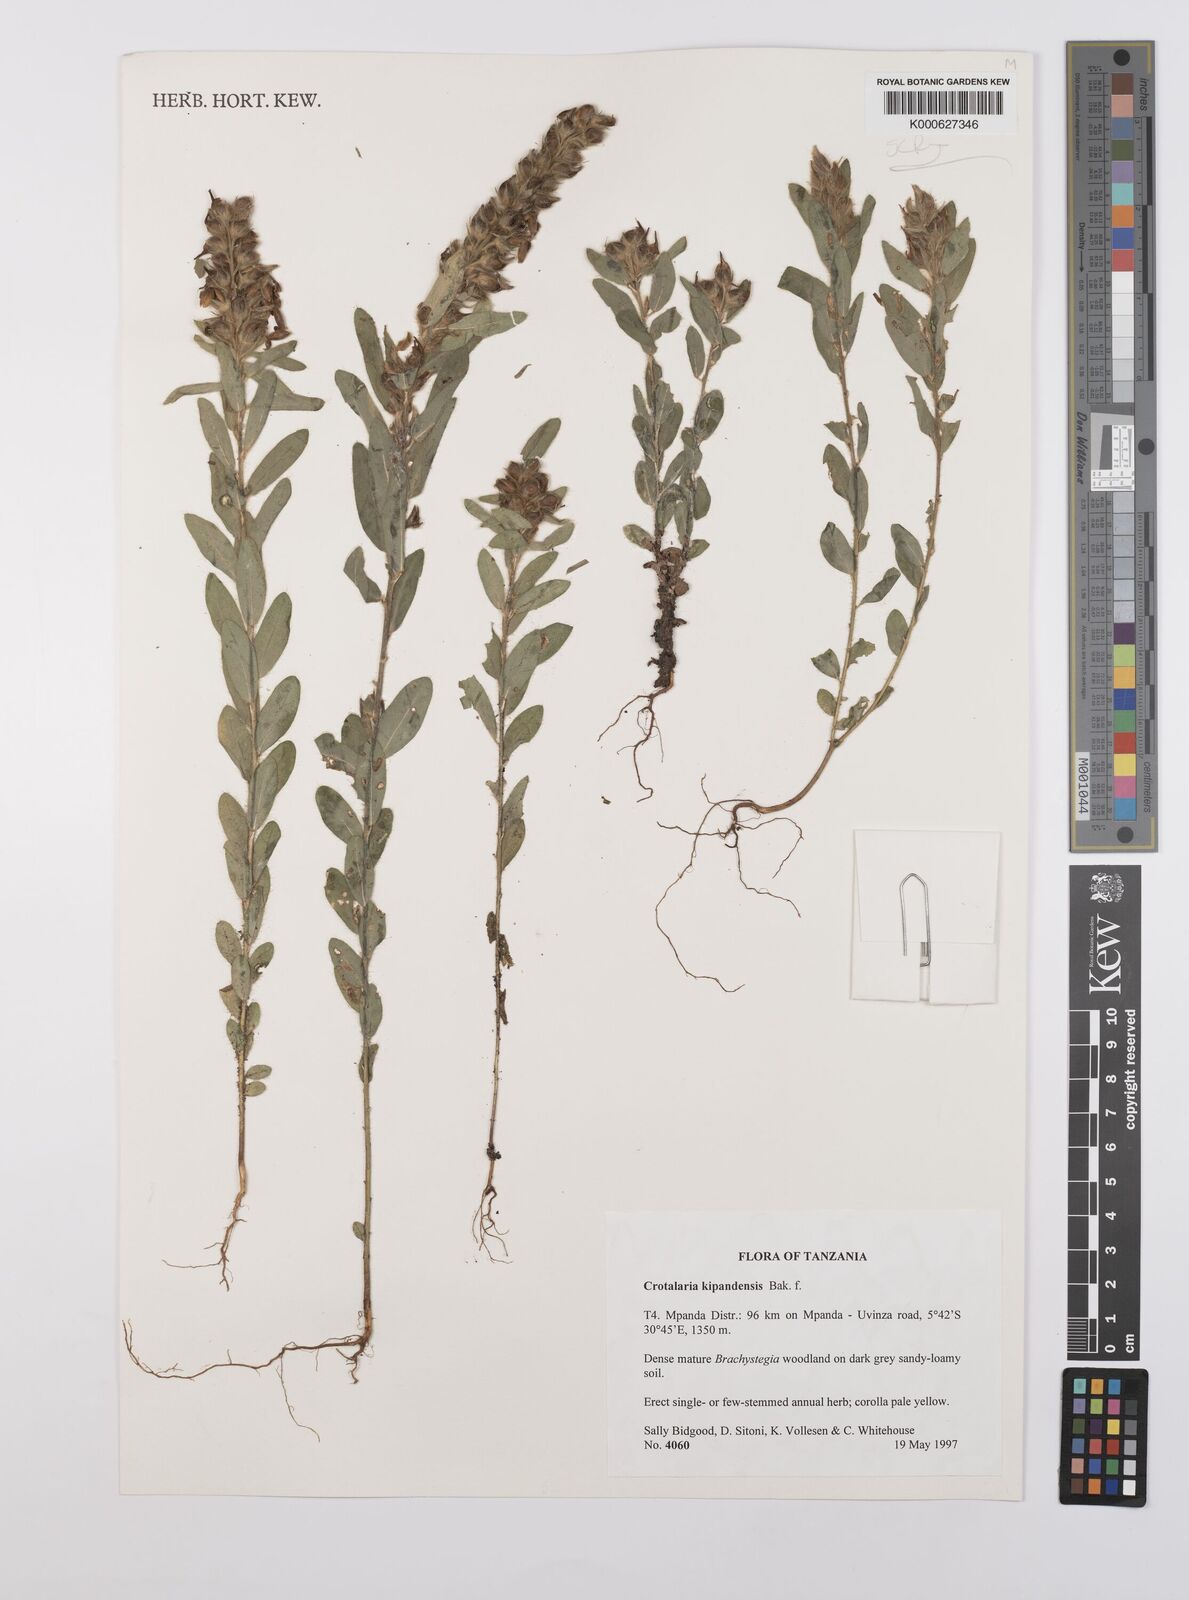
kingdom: Plantae
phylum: Tracheophyta
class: Magnoliopsida
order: Fabales
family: Fabaceae
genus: Crotalaria
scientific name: Crotalaria kipandensis
